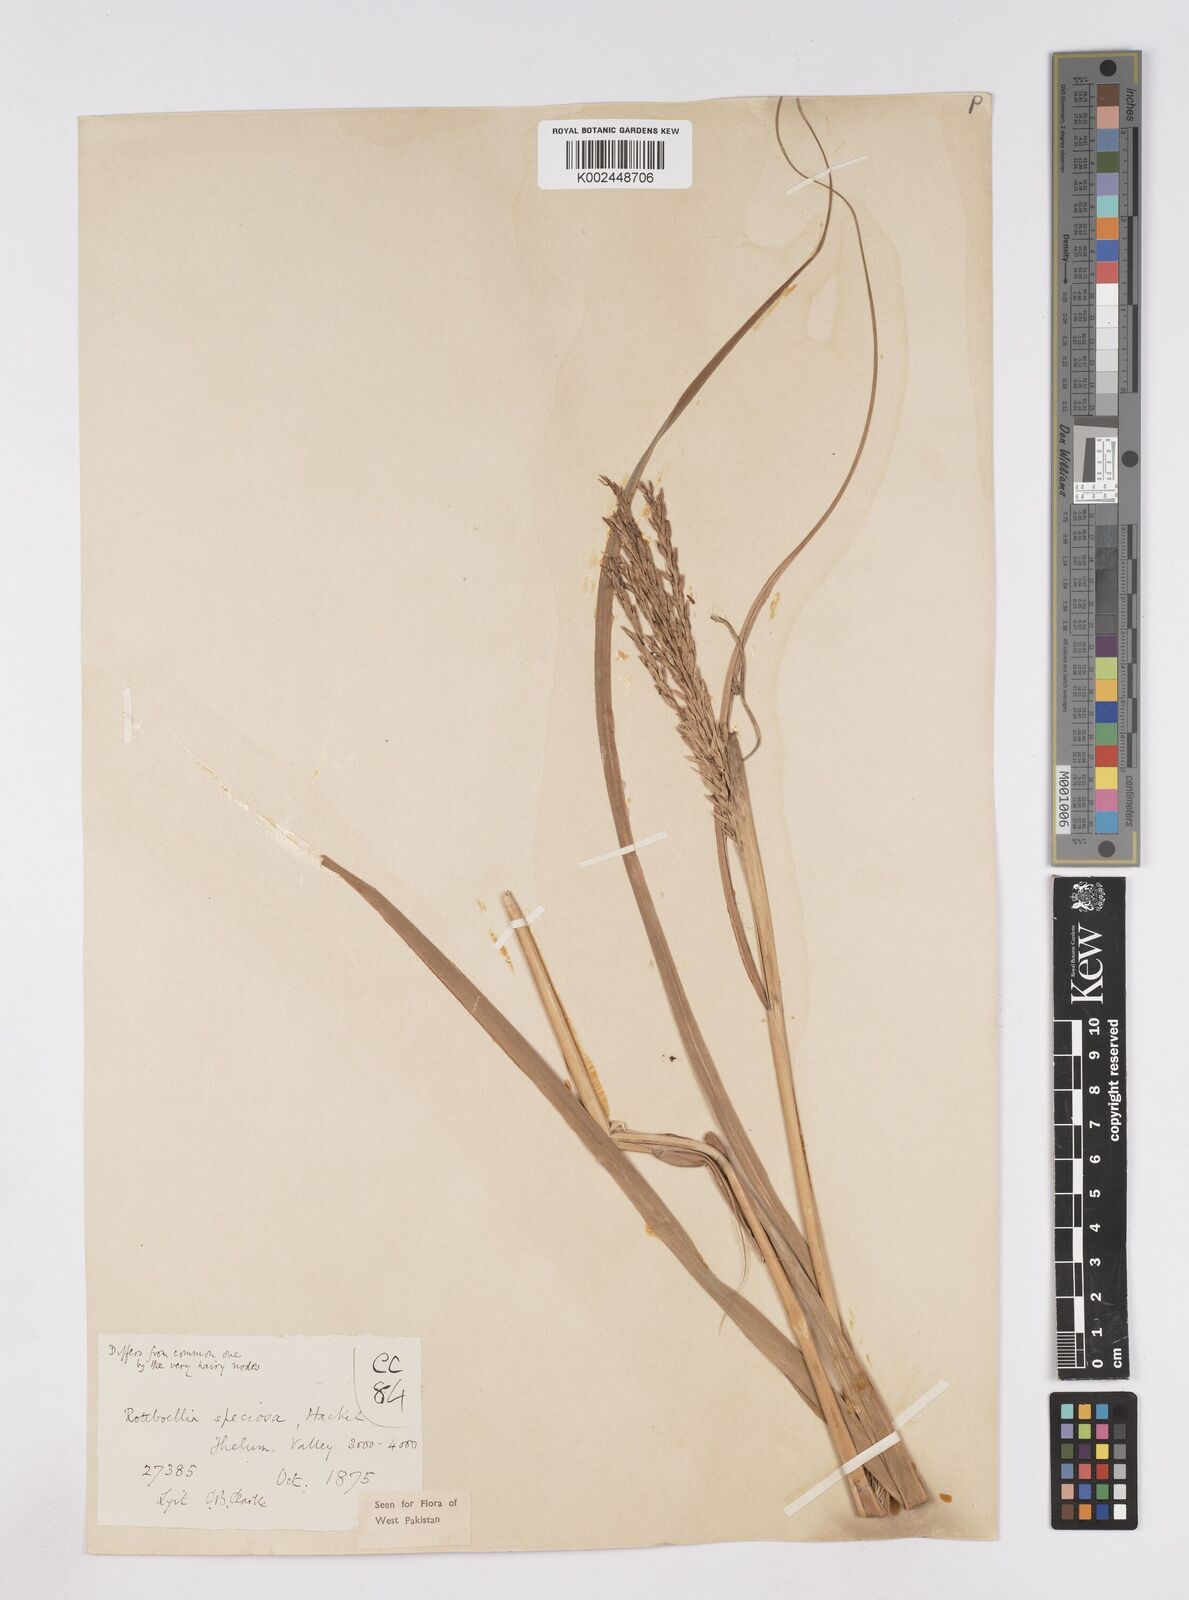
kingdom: Plantae
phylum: Tracheophyta
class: Liliopsida
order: Poales
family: Poaceae
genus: Phacelurus
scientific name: Phacelurus speciosus
